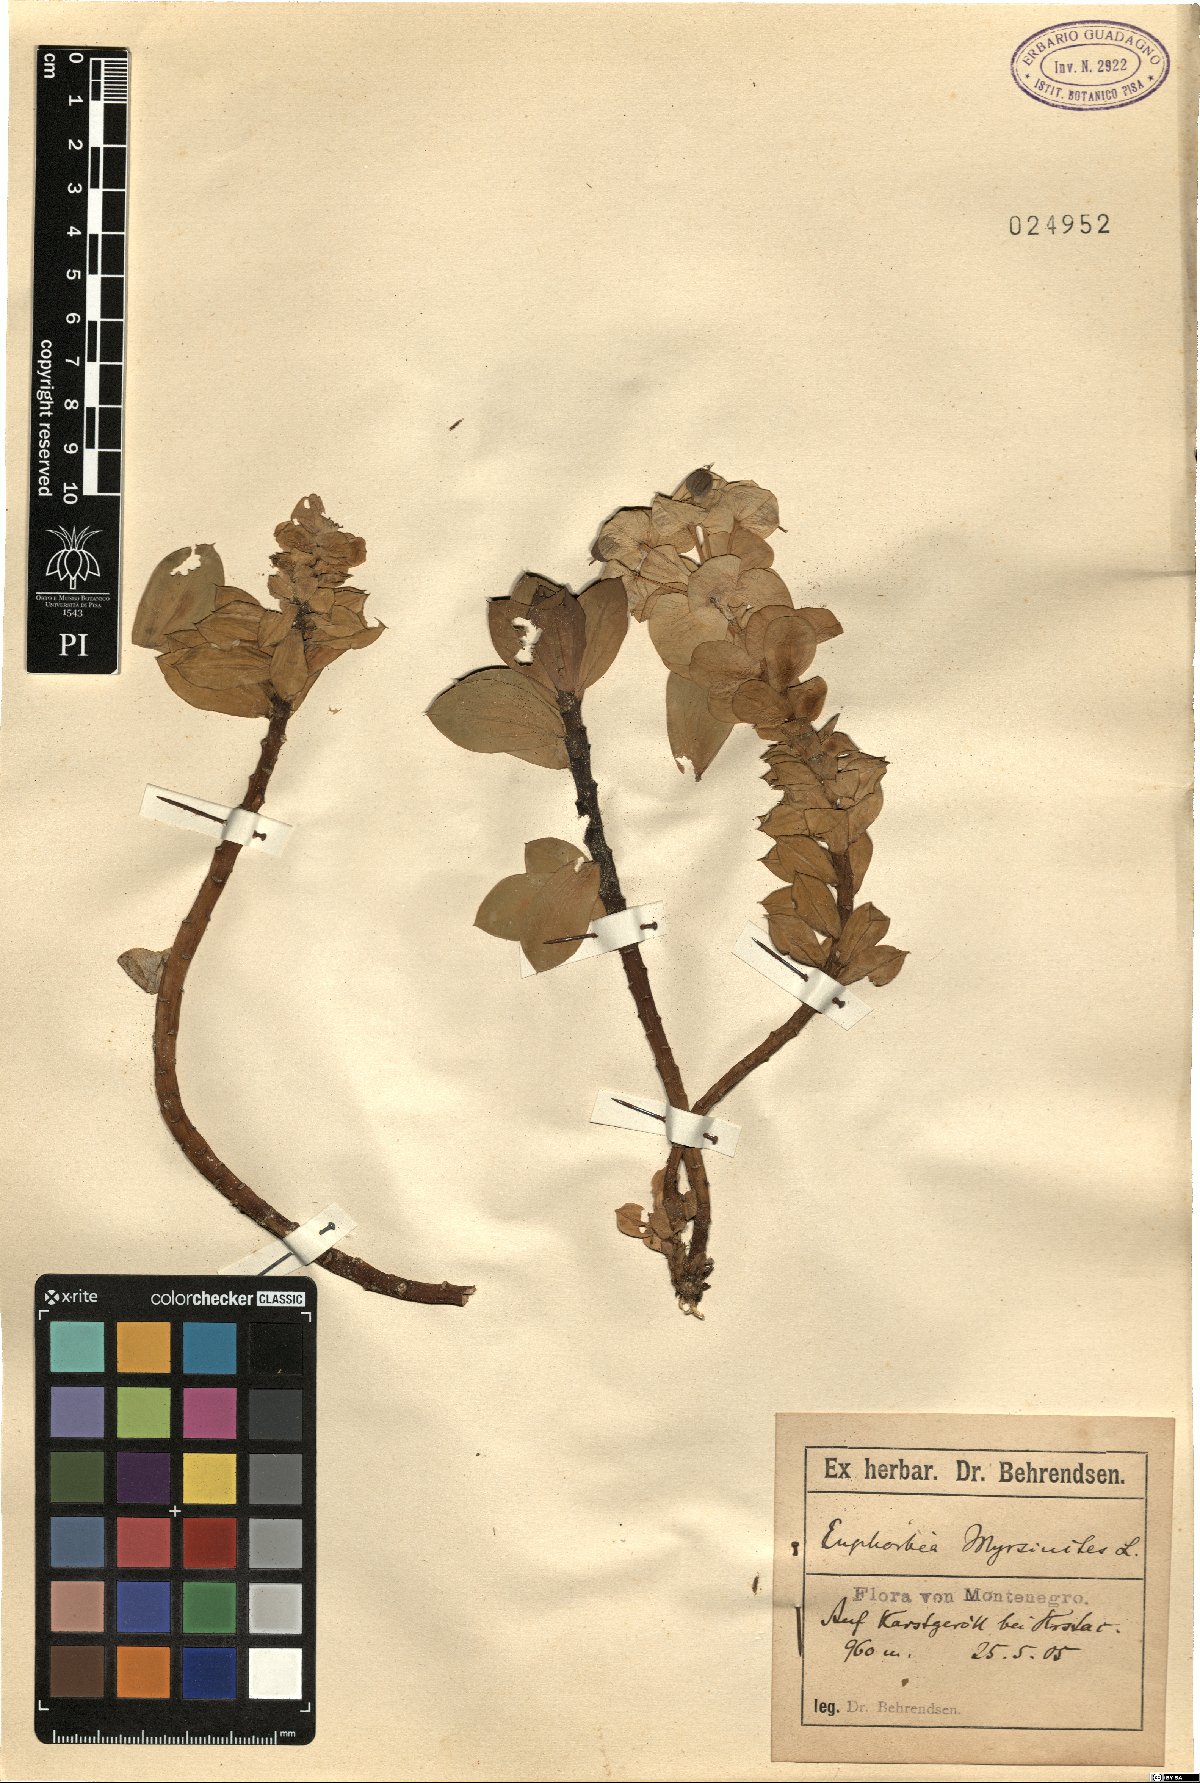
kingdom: Plantae
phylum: Tracheophyta
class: Magnoliopsida
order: Malpighiales
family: Euphorbiaceae
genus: Euphorbia
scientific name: Euphorbia myrsinites
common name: Myrtle spurge
